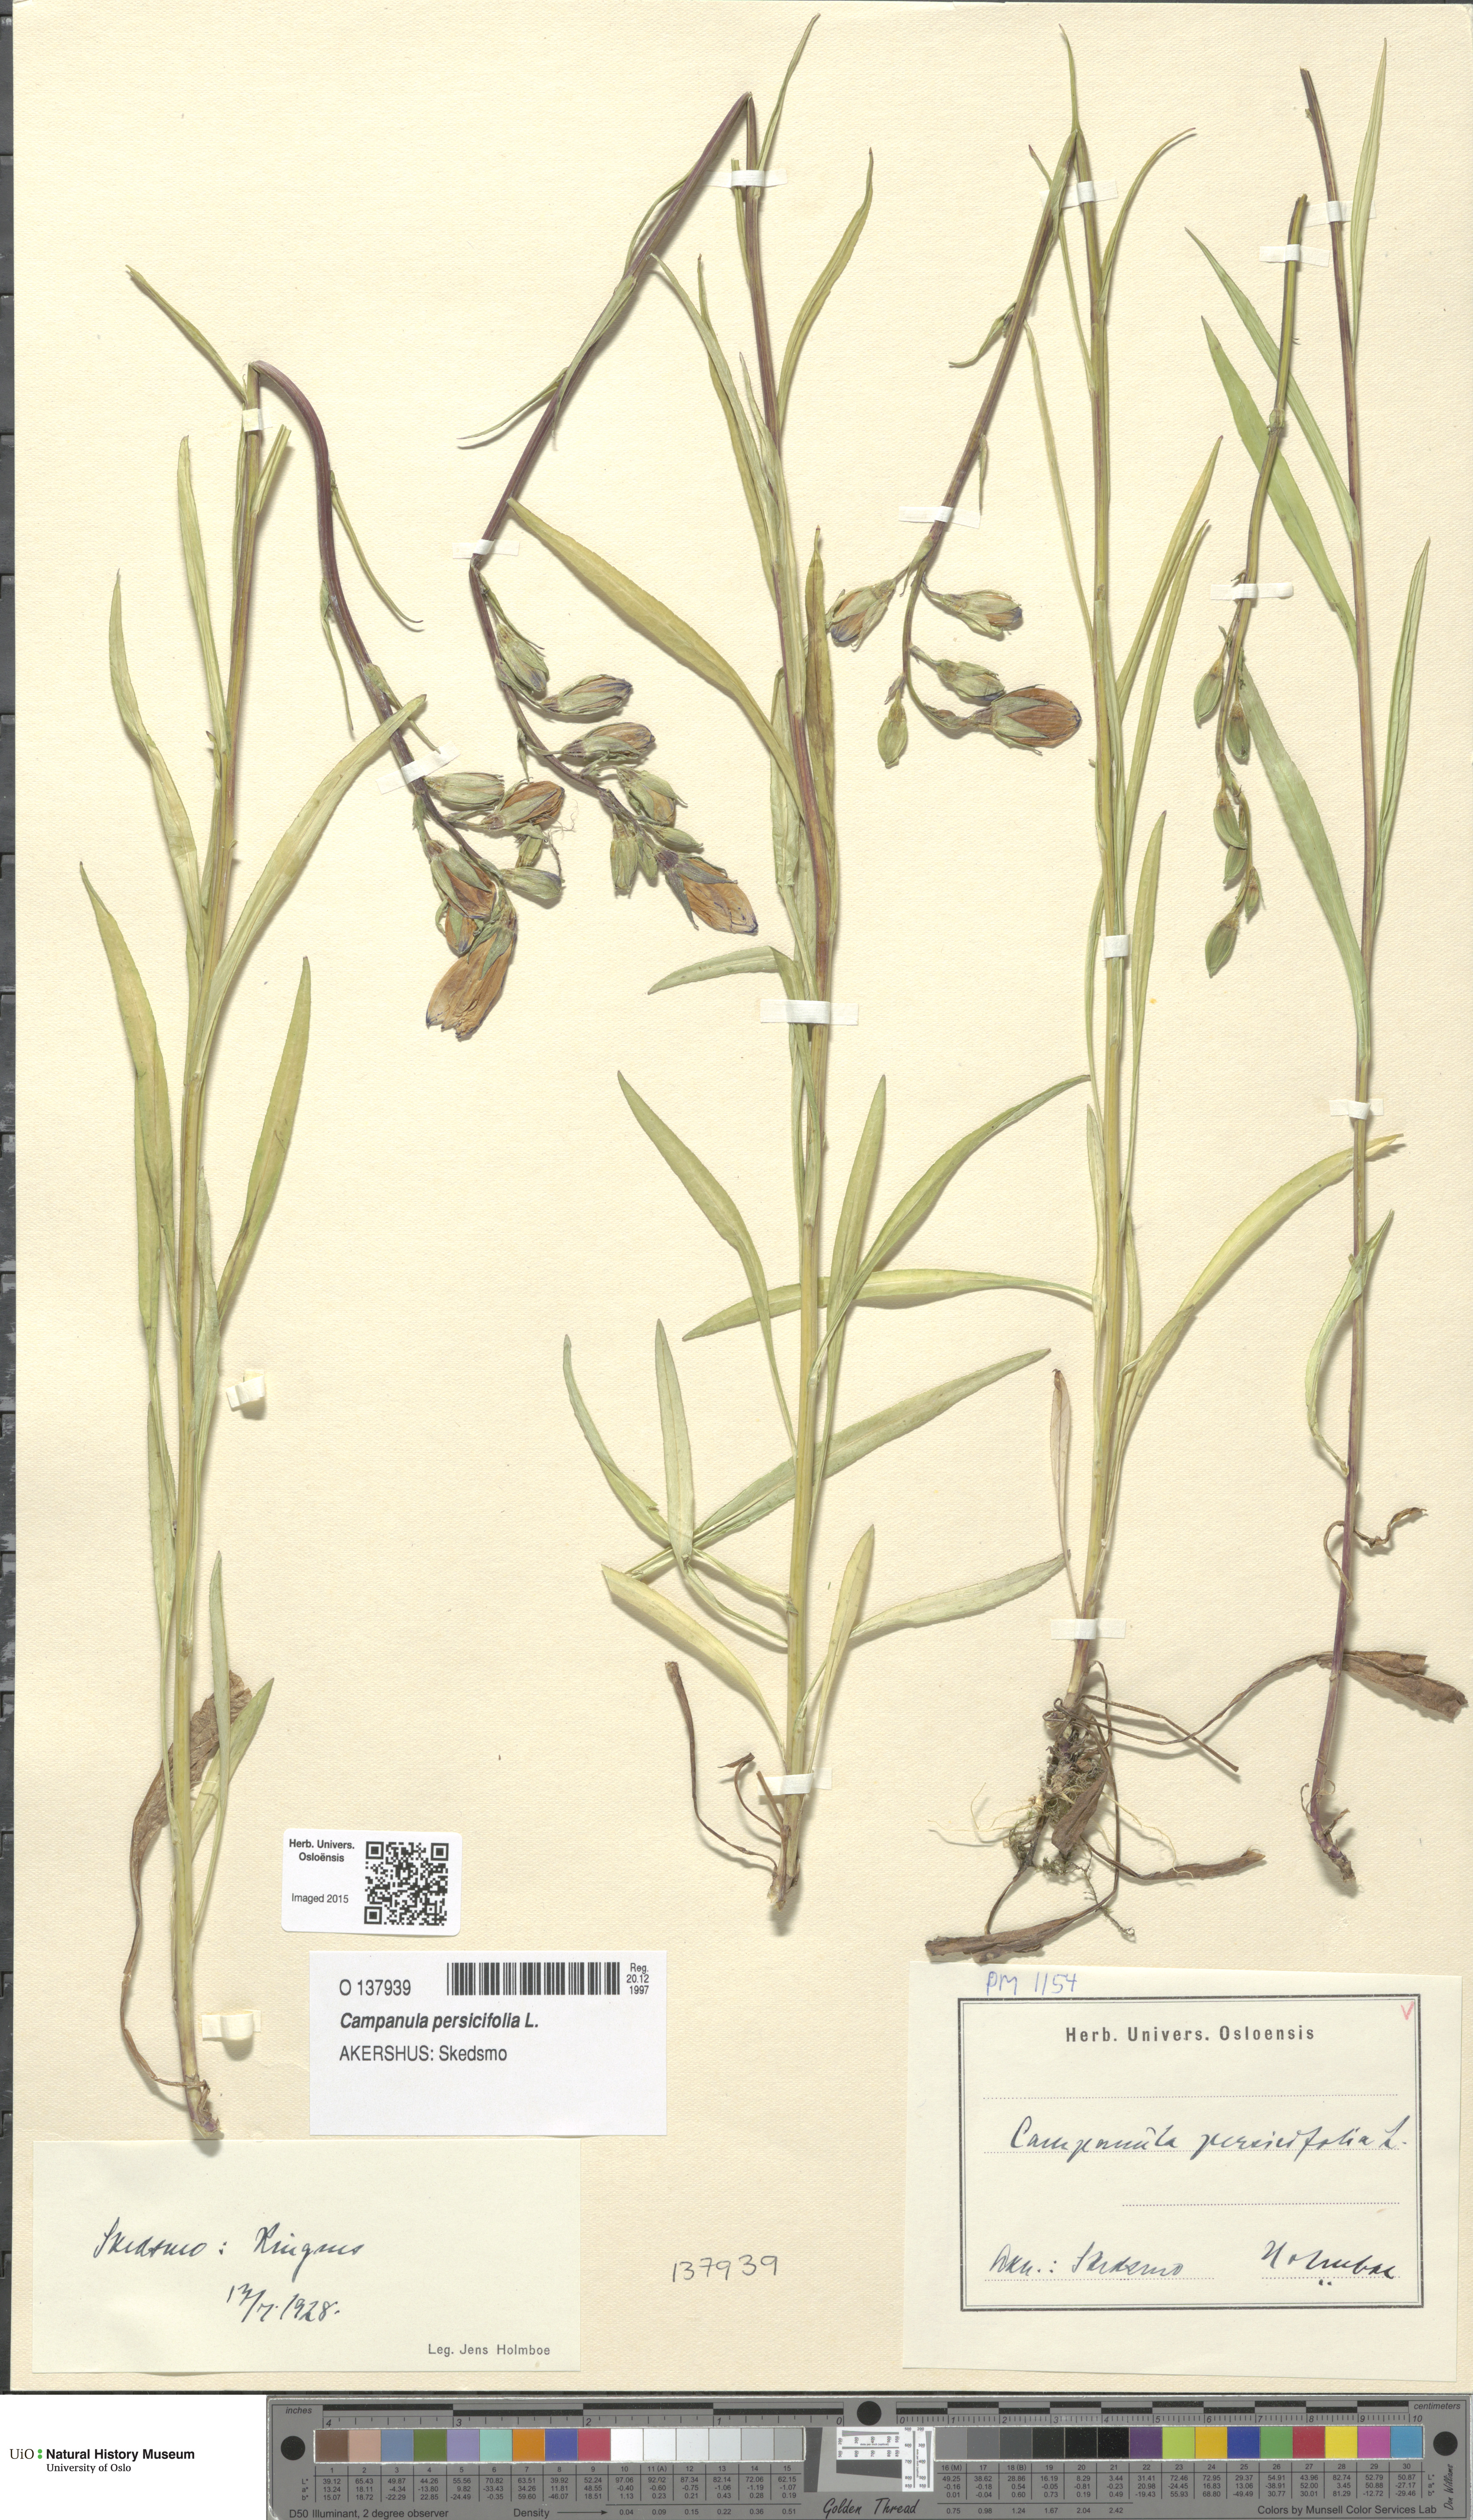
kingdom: Plantae
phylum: Tracheophyta
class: Magnoliopsida
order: Asterales
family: Campanulaceae
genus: Campanula
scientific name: Campanula persicifolia
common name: Peach-leaved bellflower
